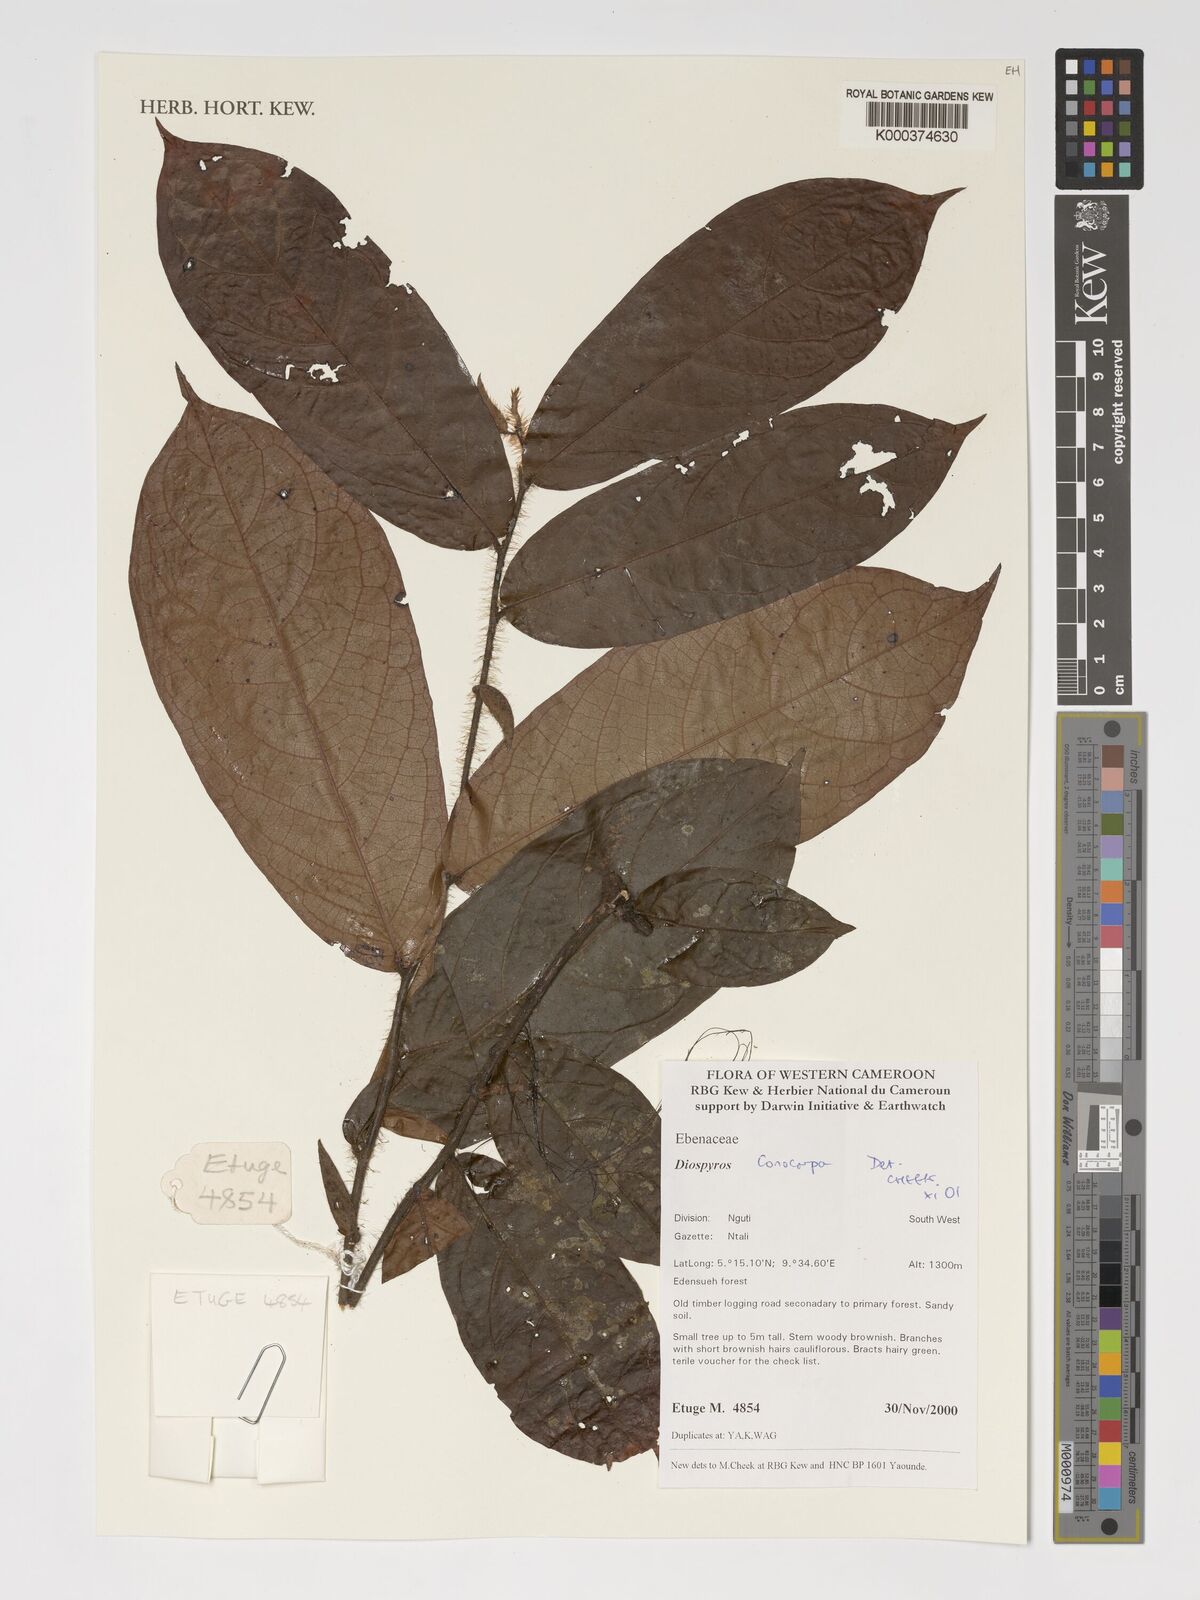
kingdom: Plantae
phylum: Tracheophyta
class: Magnoliopsida
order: Ericales
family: Ebenaceae
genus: Diospyros
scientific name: Diospyros conocarpa
